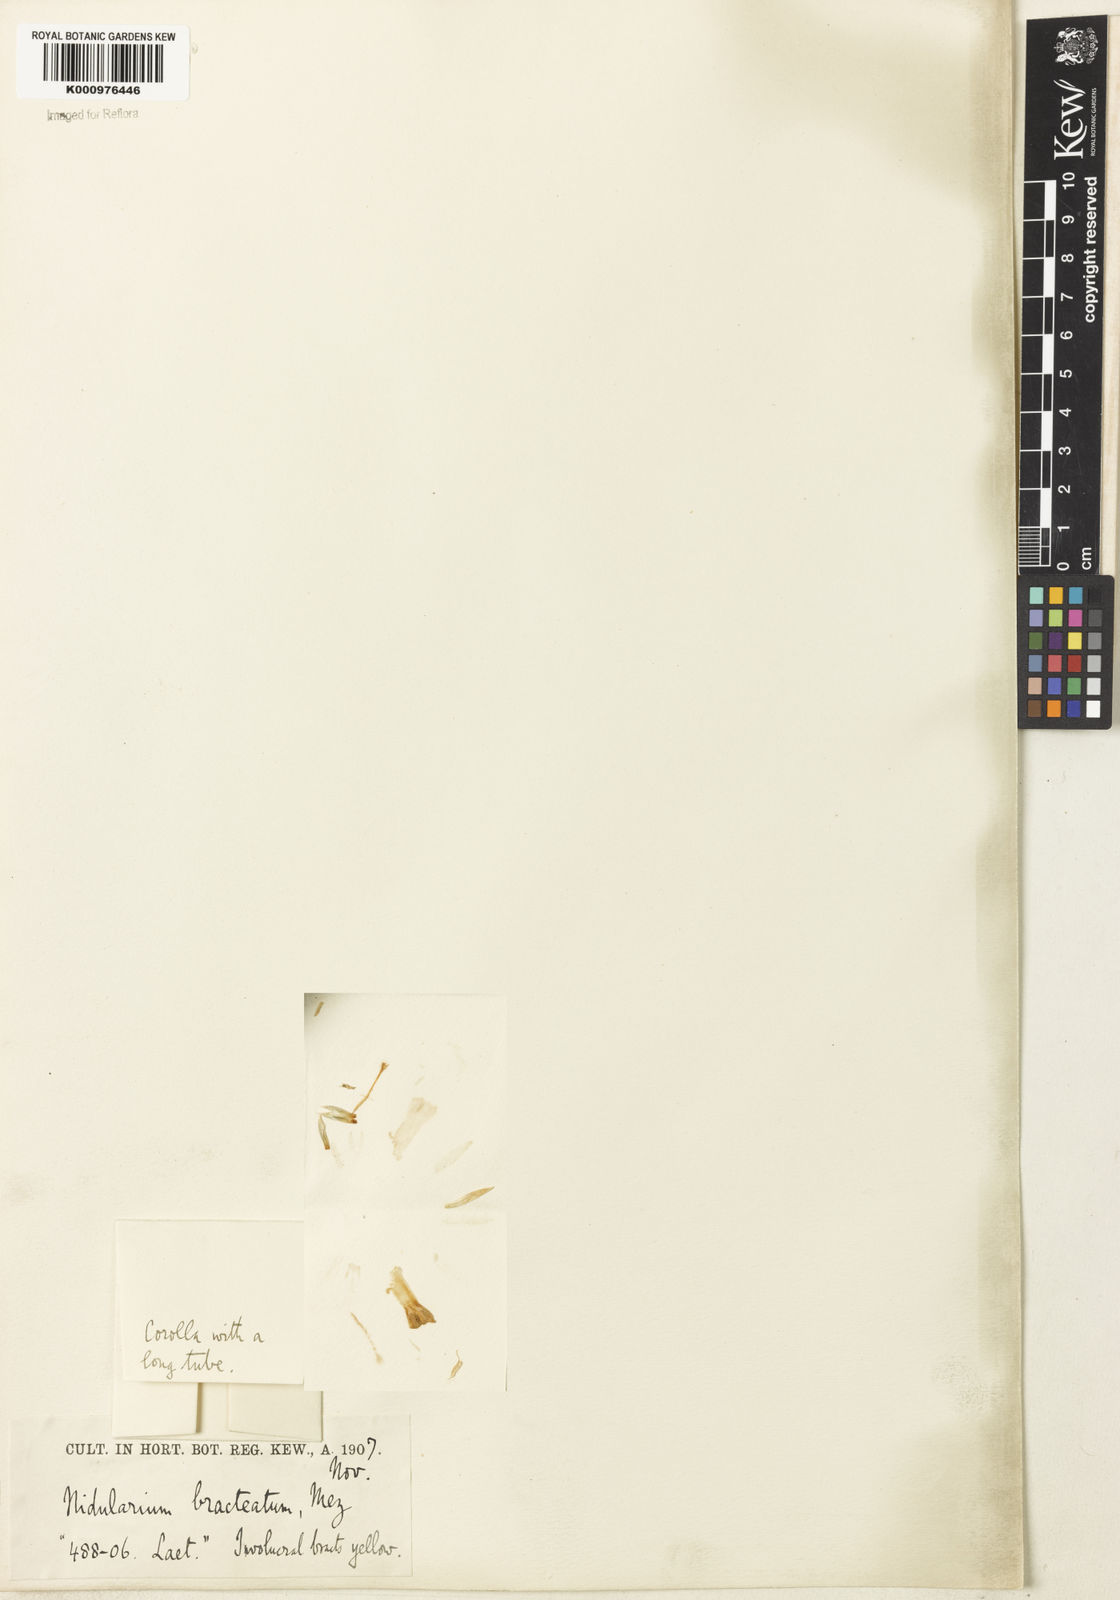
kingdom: Plantae
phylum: Tracheophyta
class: Liliopsida
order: Poales
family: Bromeliaceae
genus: Nidularium
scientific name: Nidularium
